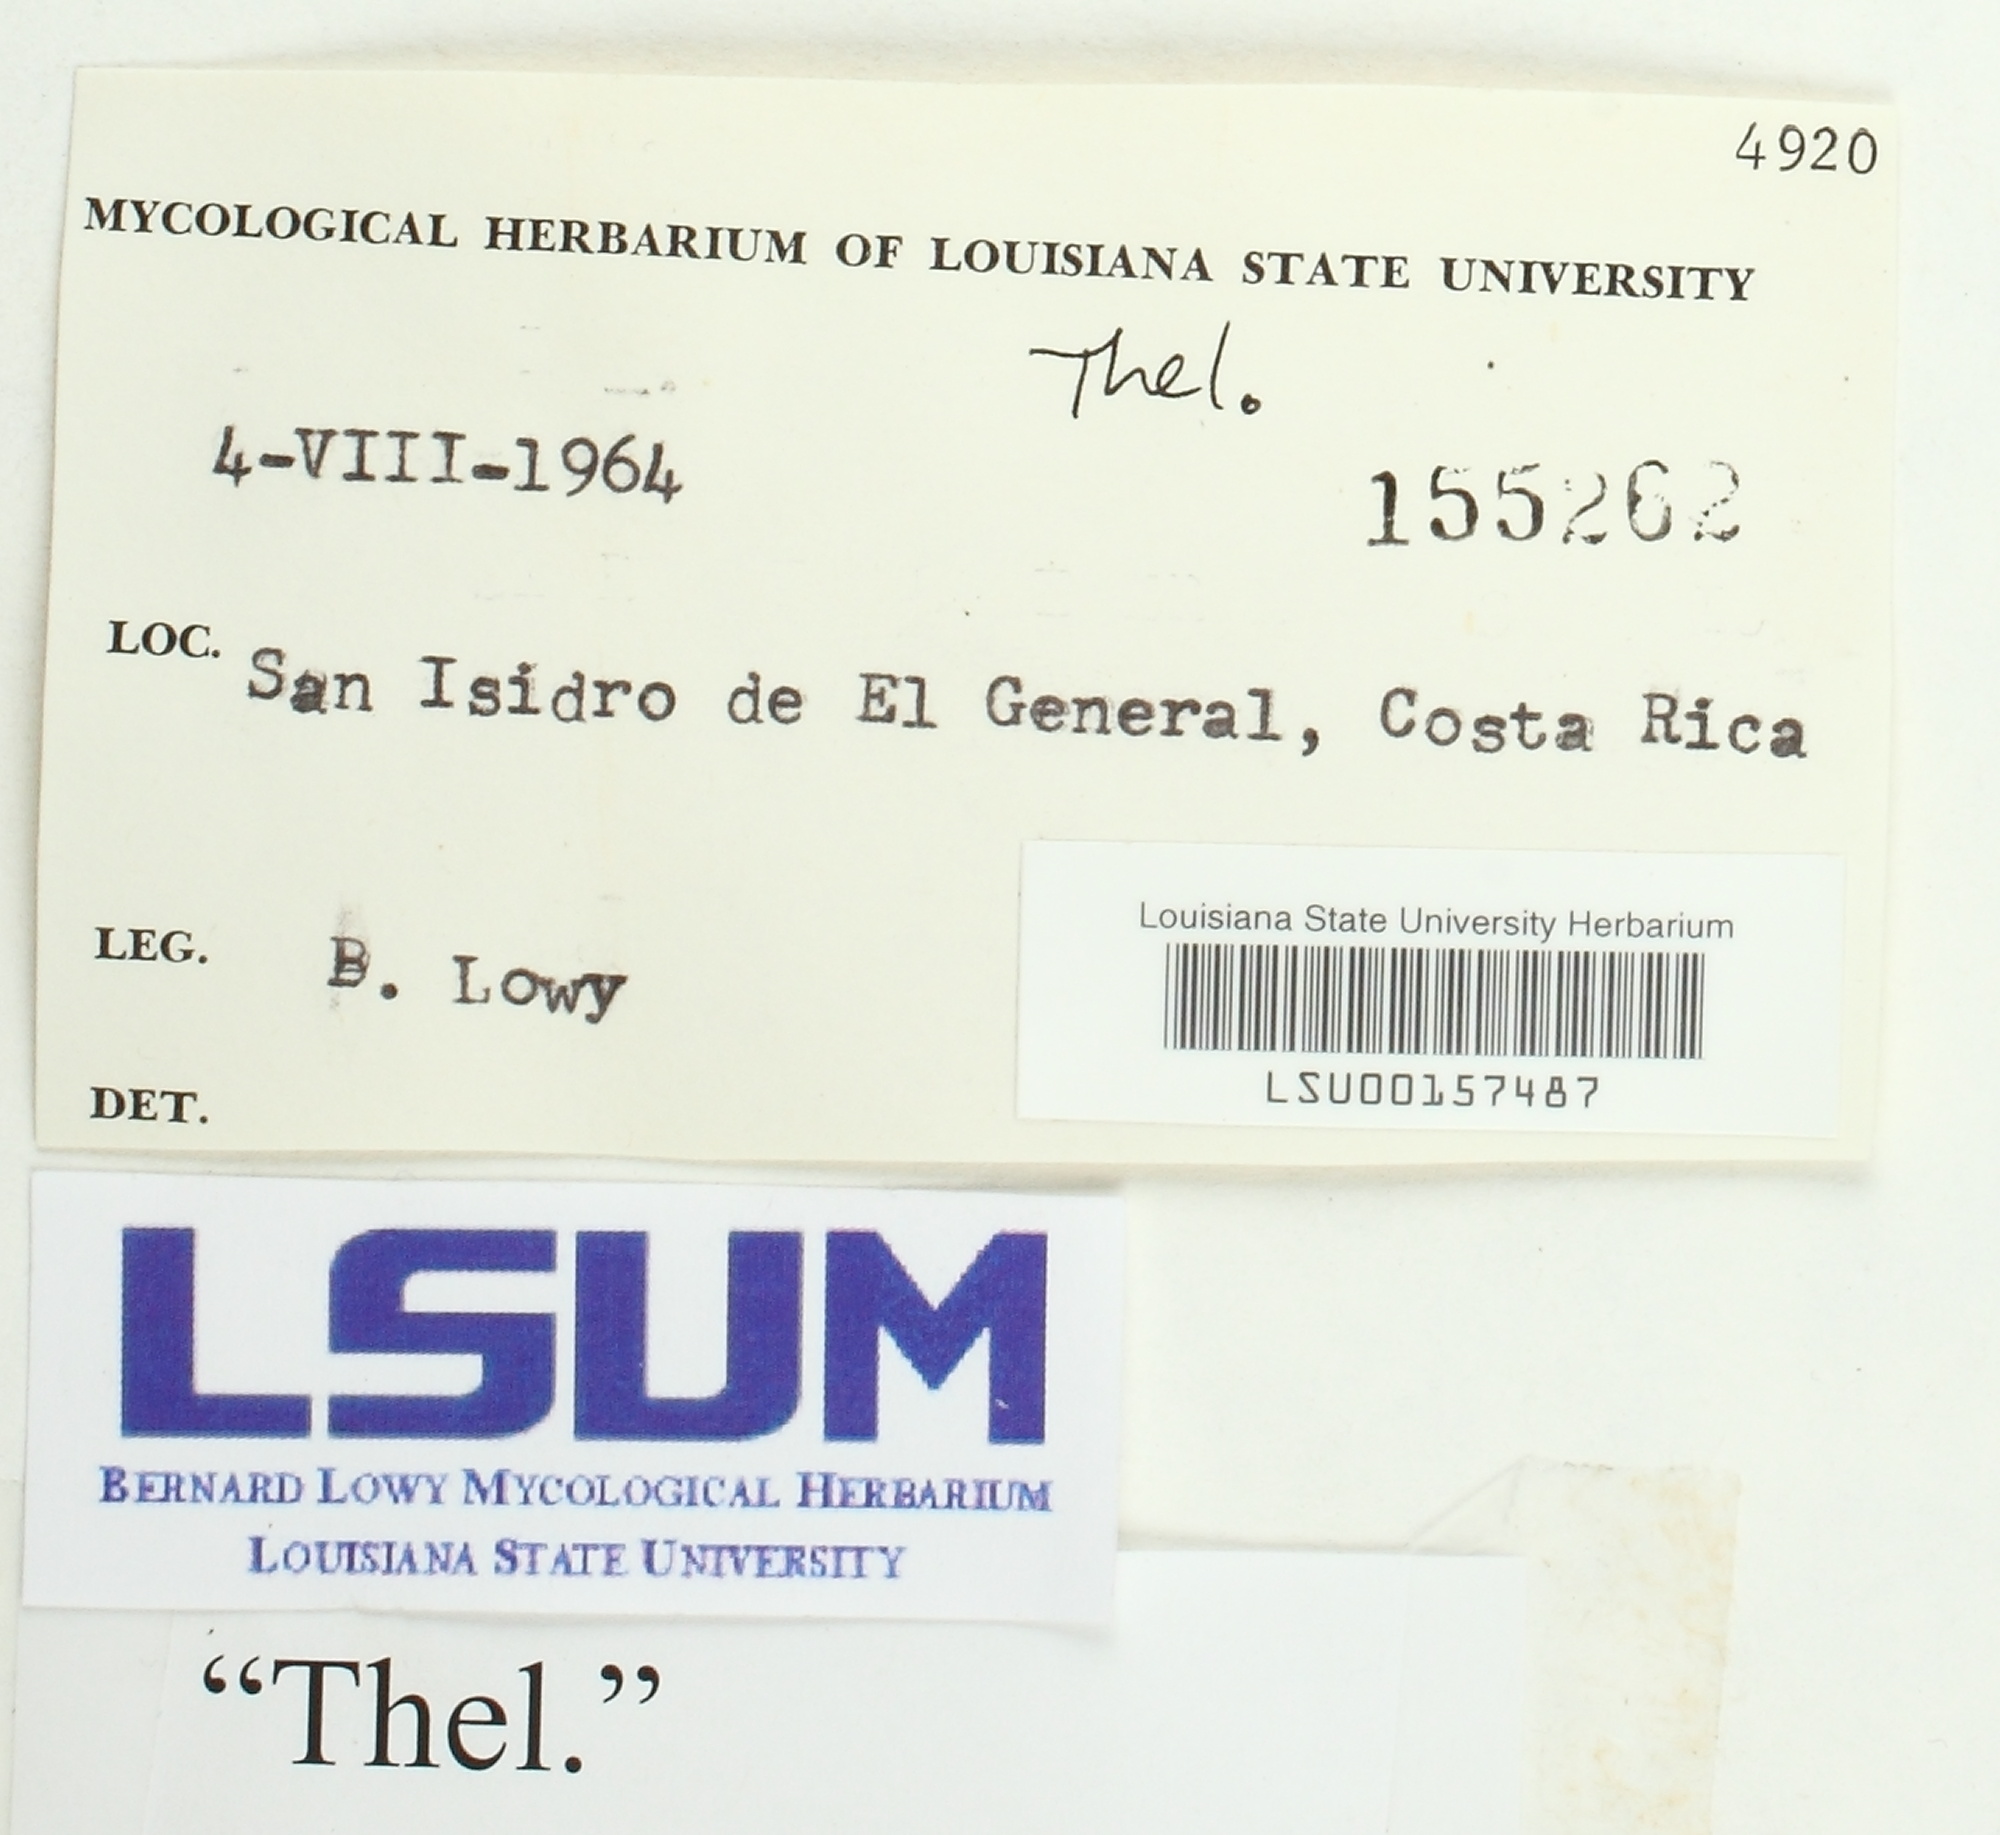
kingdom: Fungi
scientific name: Fungi
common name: Fungi
